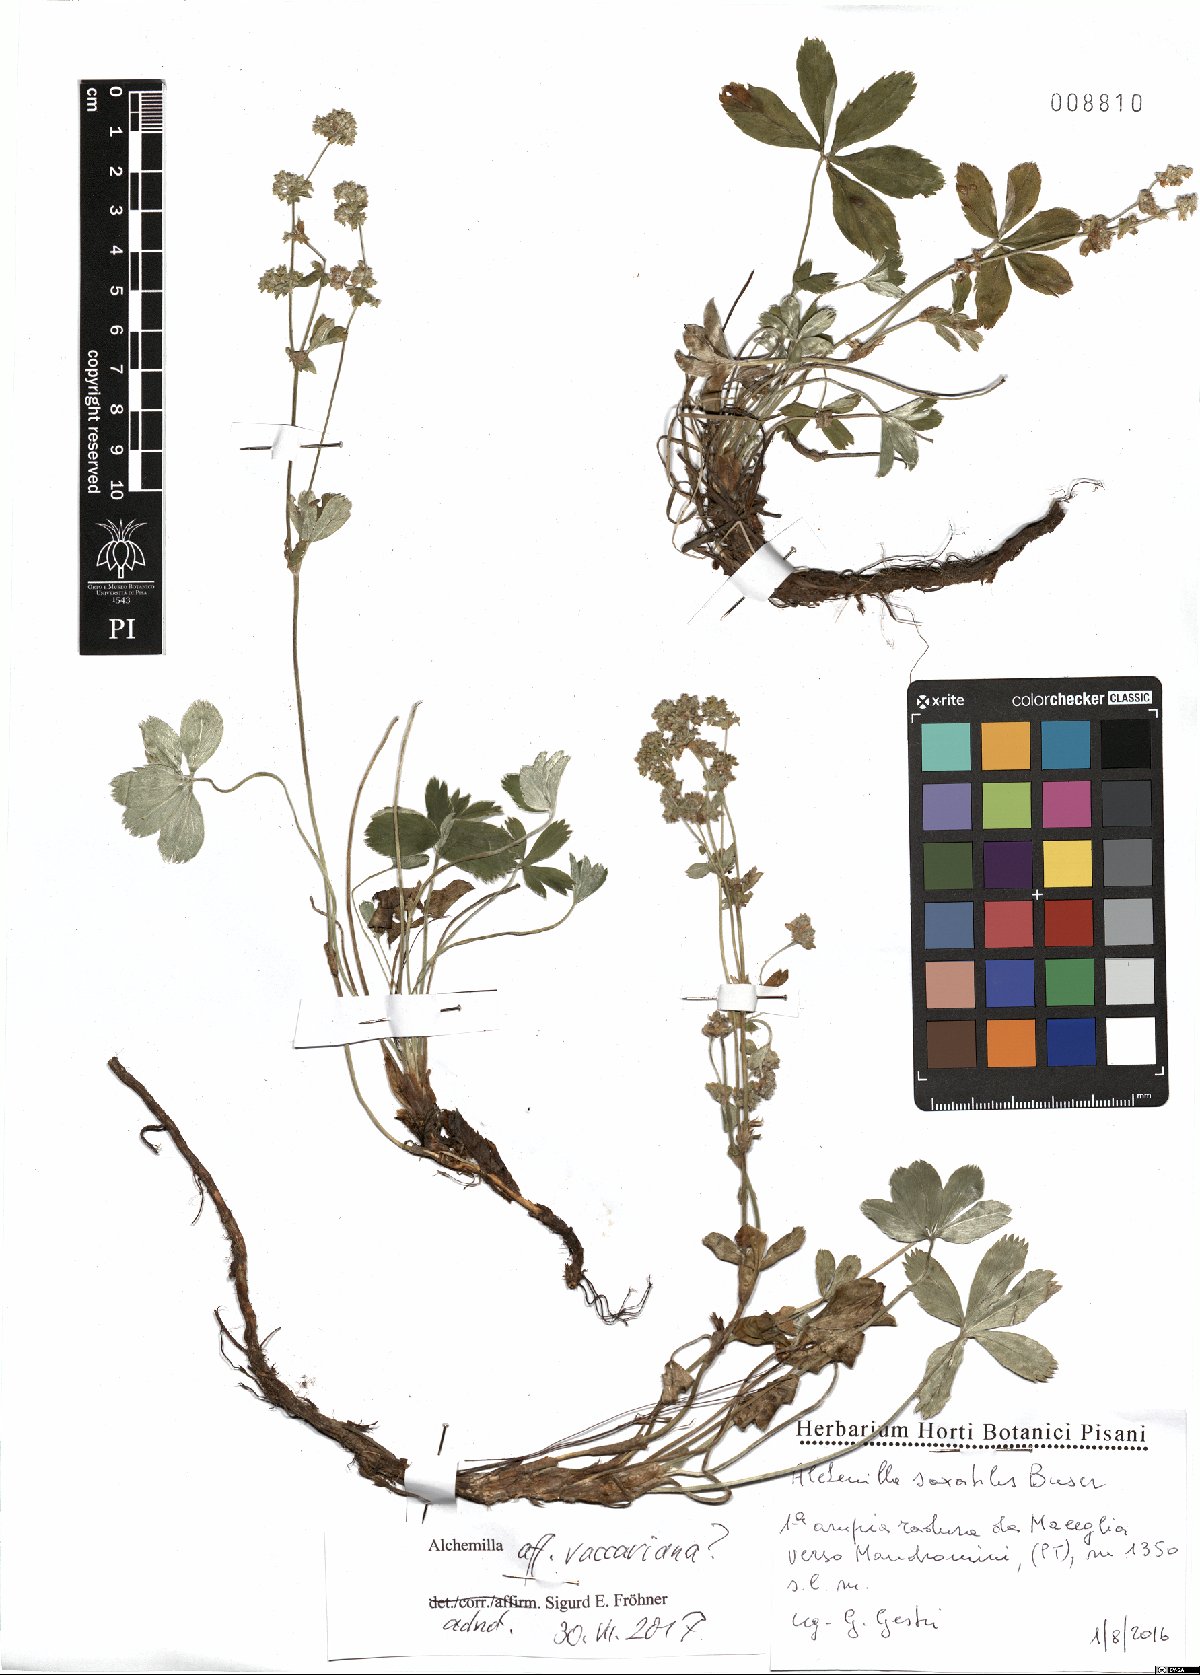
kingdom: Plantae
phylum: Tracheophyta
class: Magnoliopsida
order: Rosales
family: Rosaceae
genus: Alchemilla
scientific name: Alchemilla vaccariana
